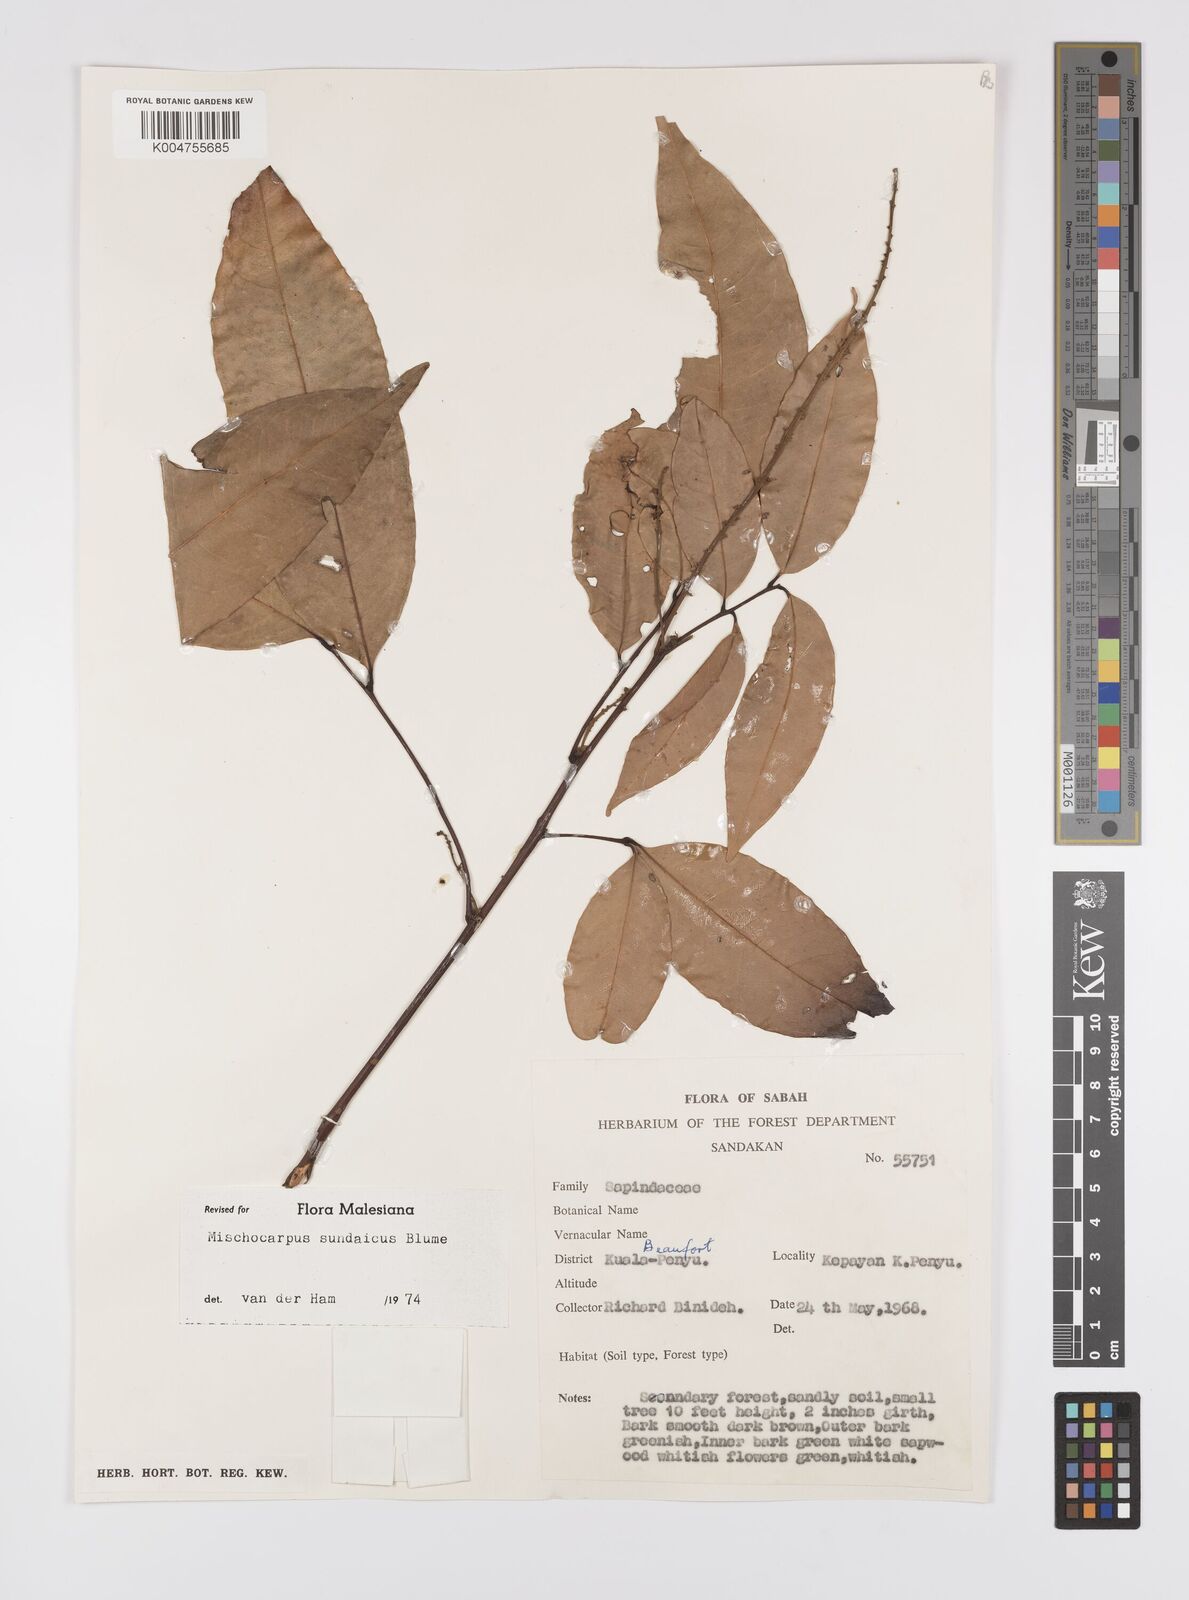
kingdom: Plantae
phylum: Tracheophyta
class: Magnoliopsida
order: Sapindales
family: Sapindaceae
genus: Mischocarpus
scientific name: Mischocarpus sundaicus
